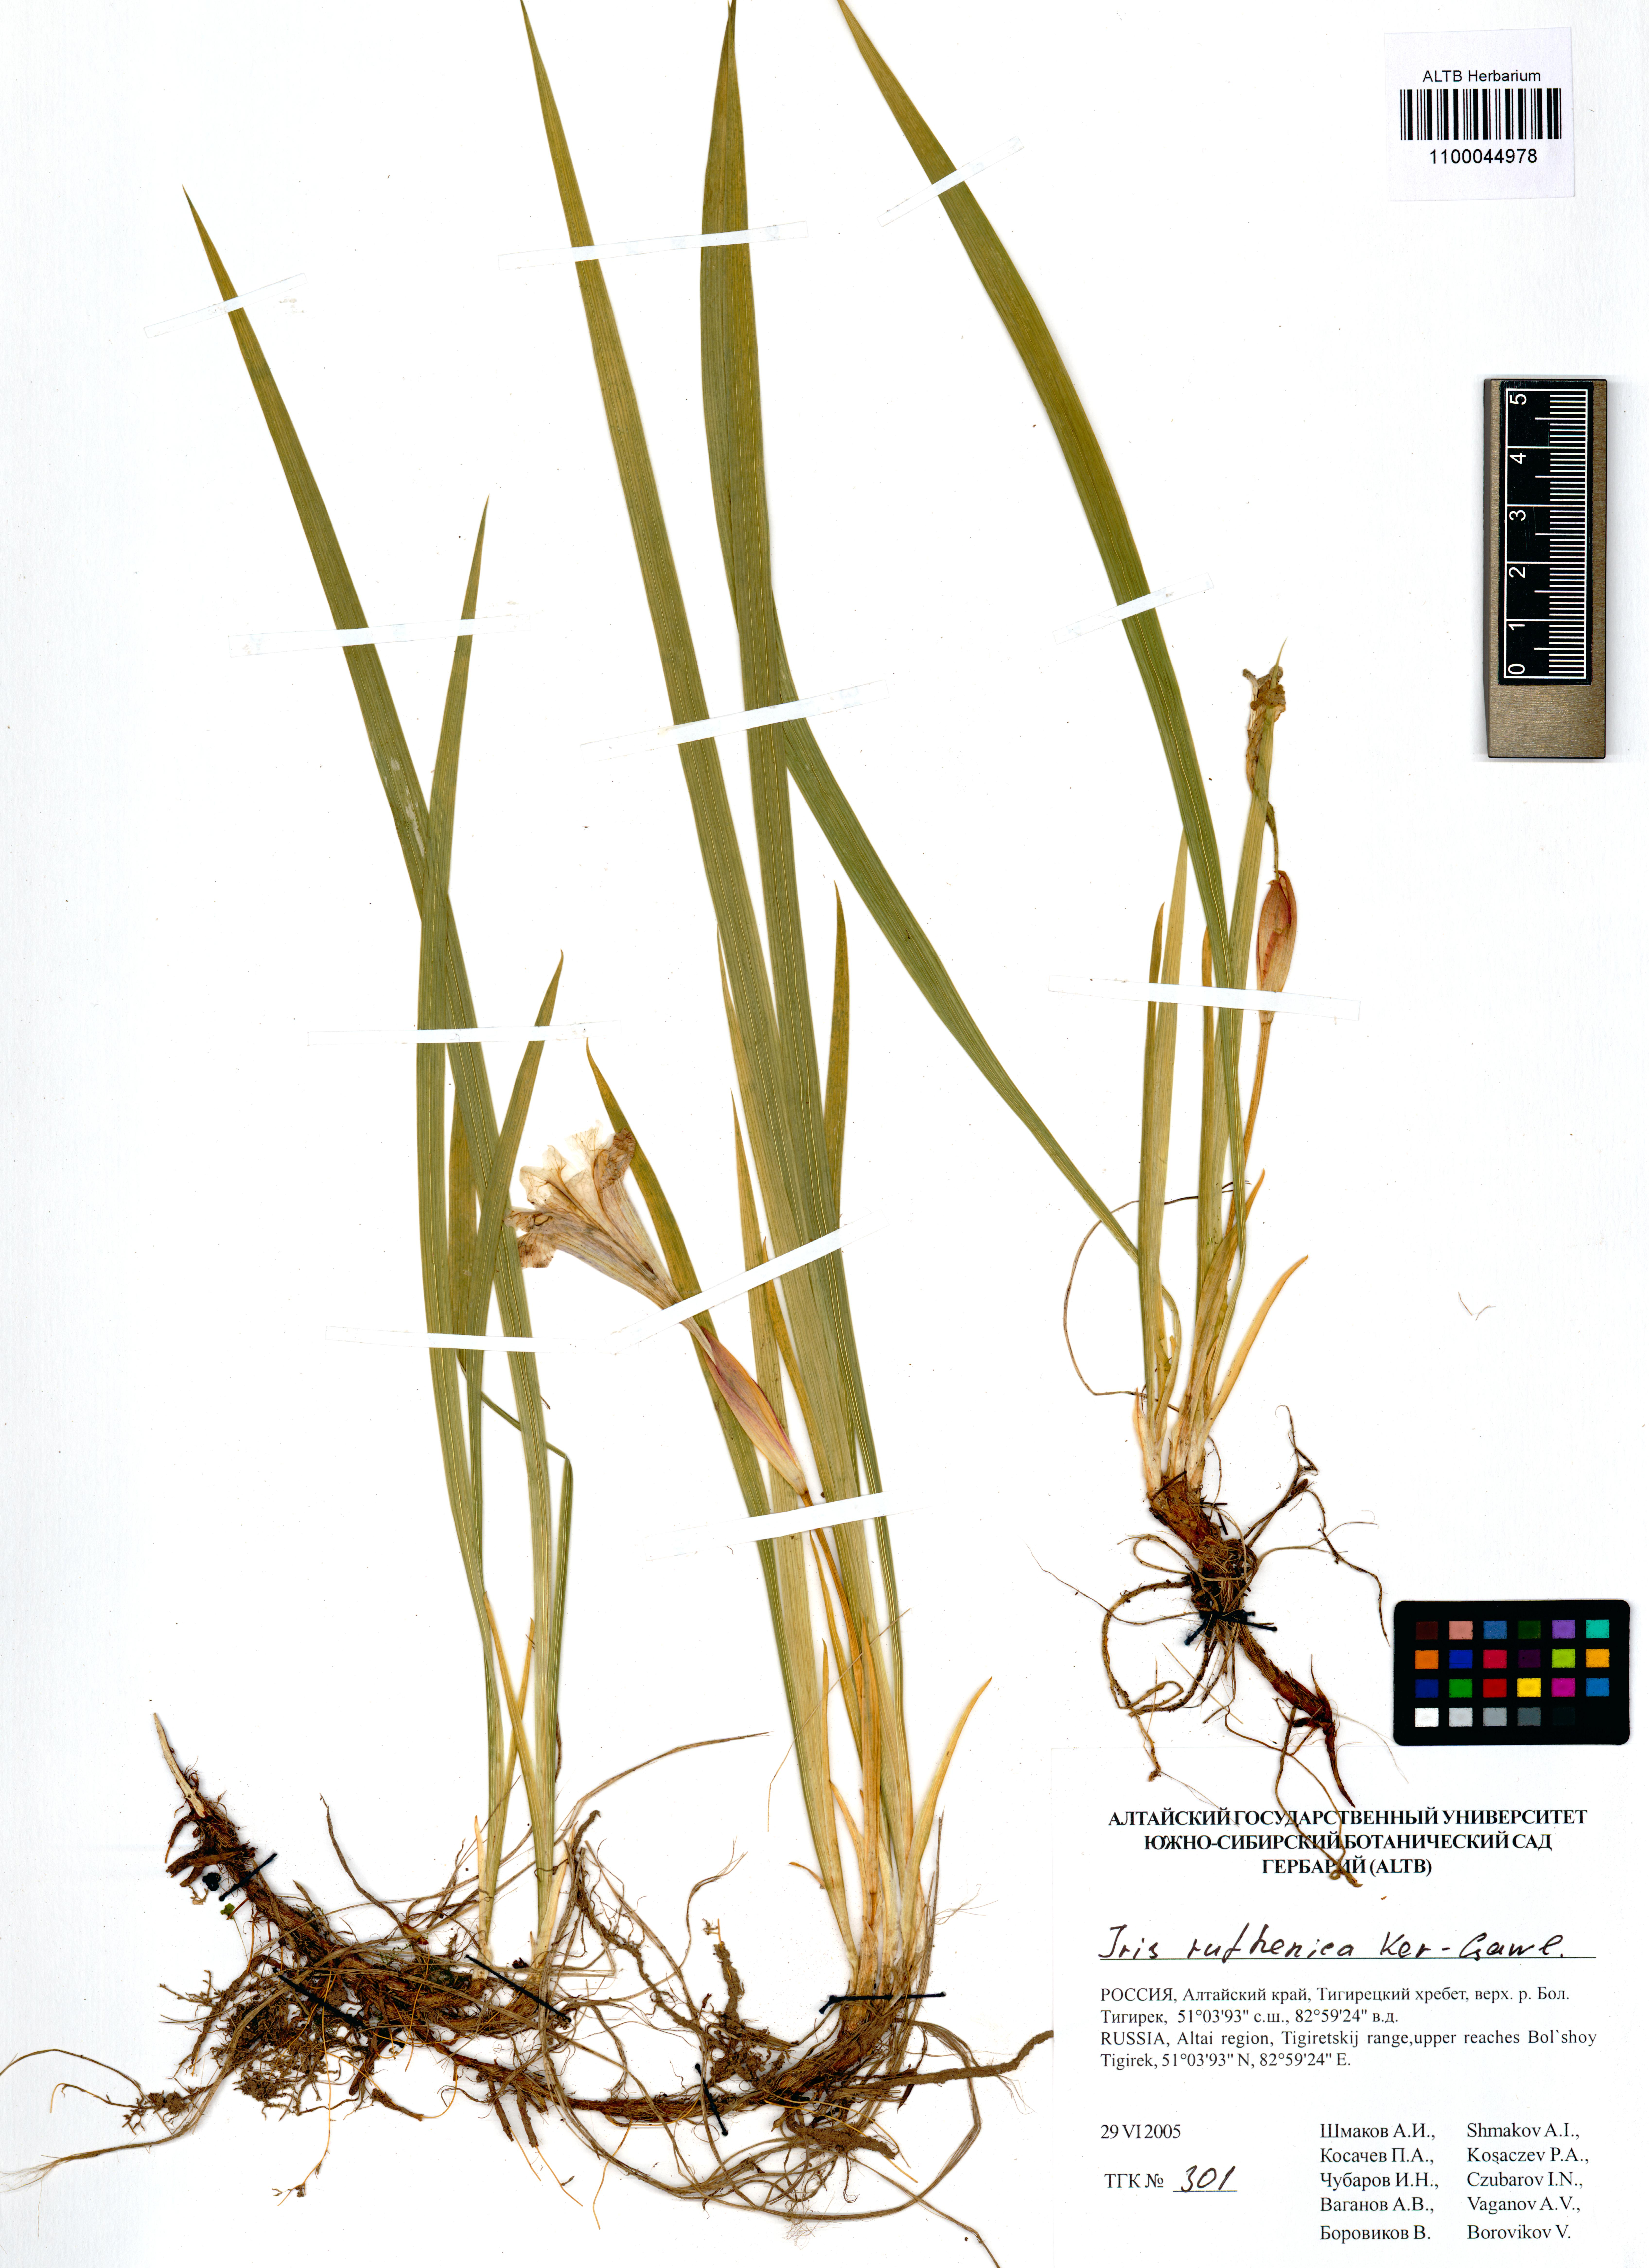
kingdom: Plantae
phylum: Tracheophyta
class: Liliopsida
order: Asparagales
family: Iridaceae
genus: Iris
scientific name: Iris ruthenica
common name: Purple-bract iris
